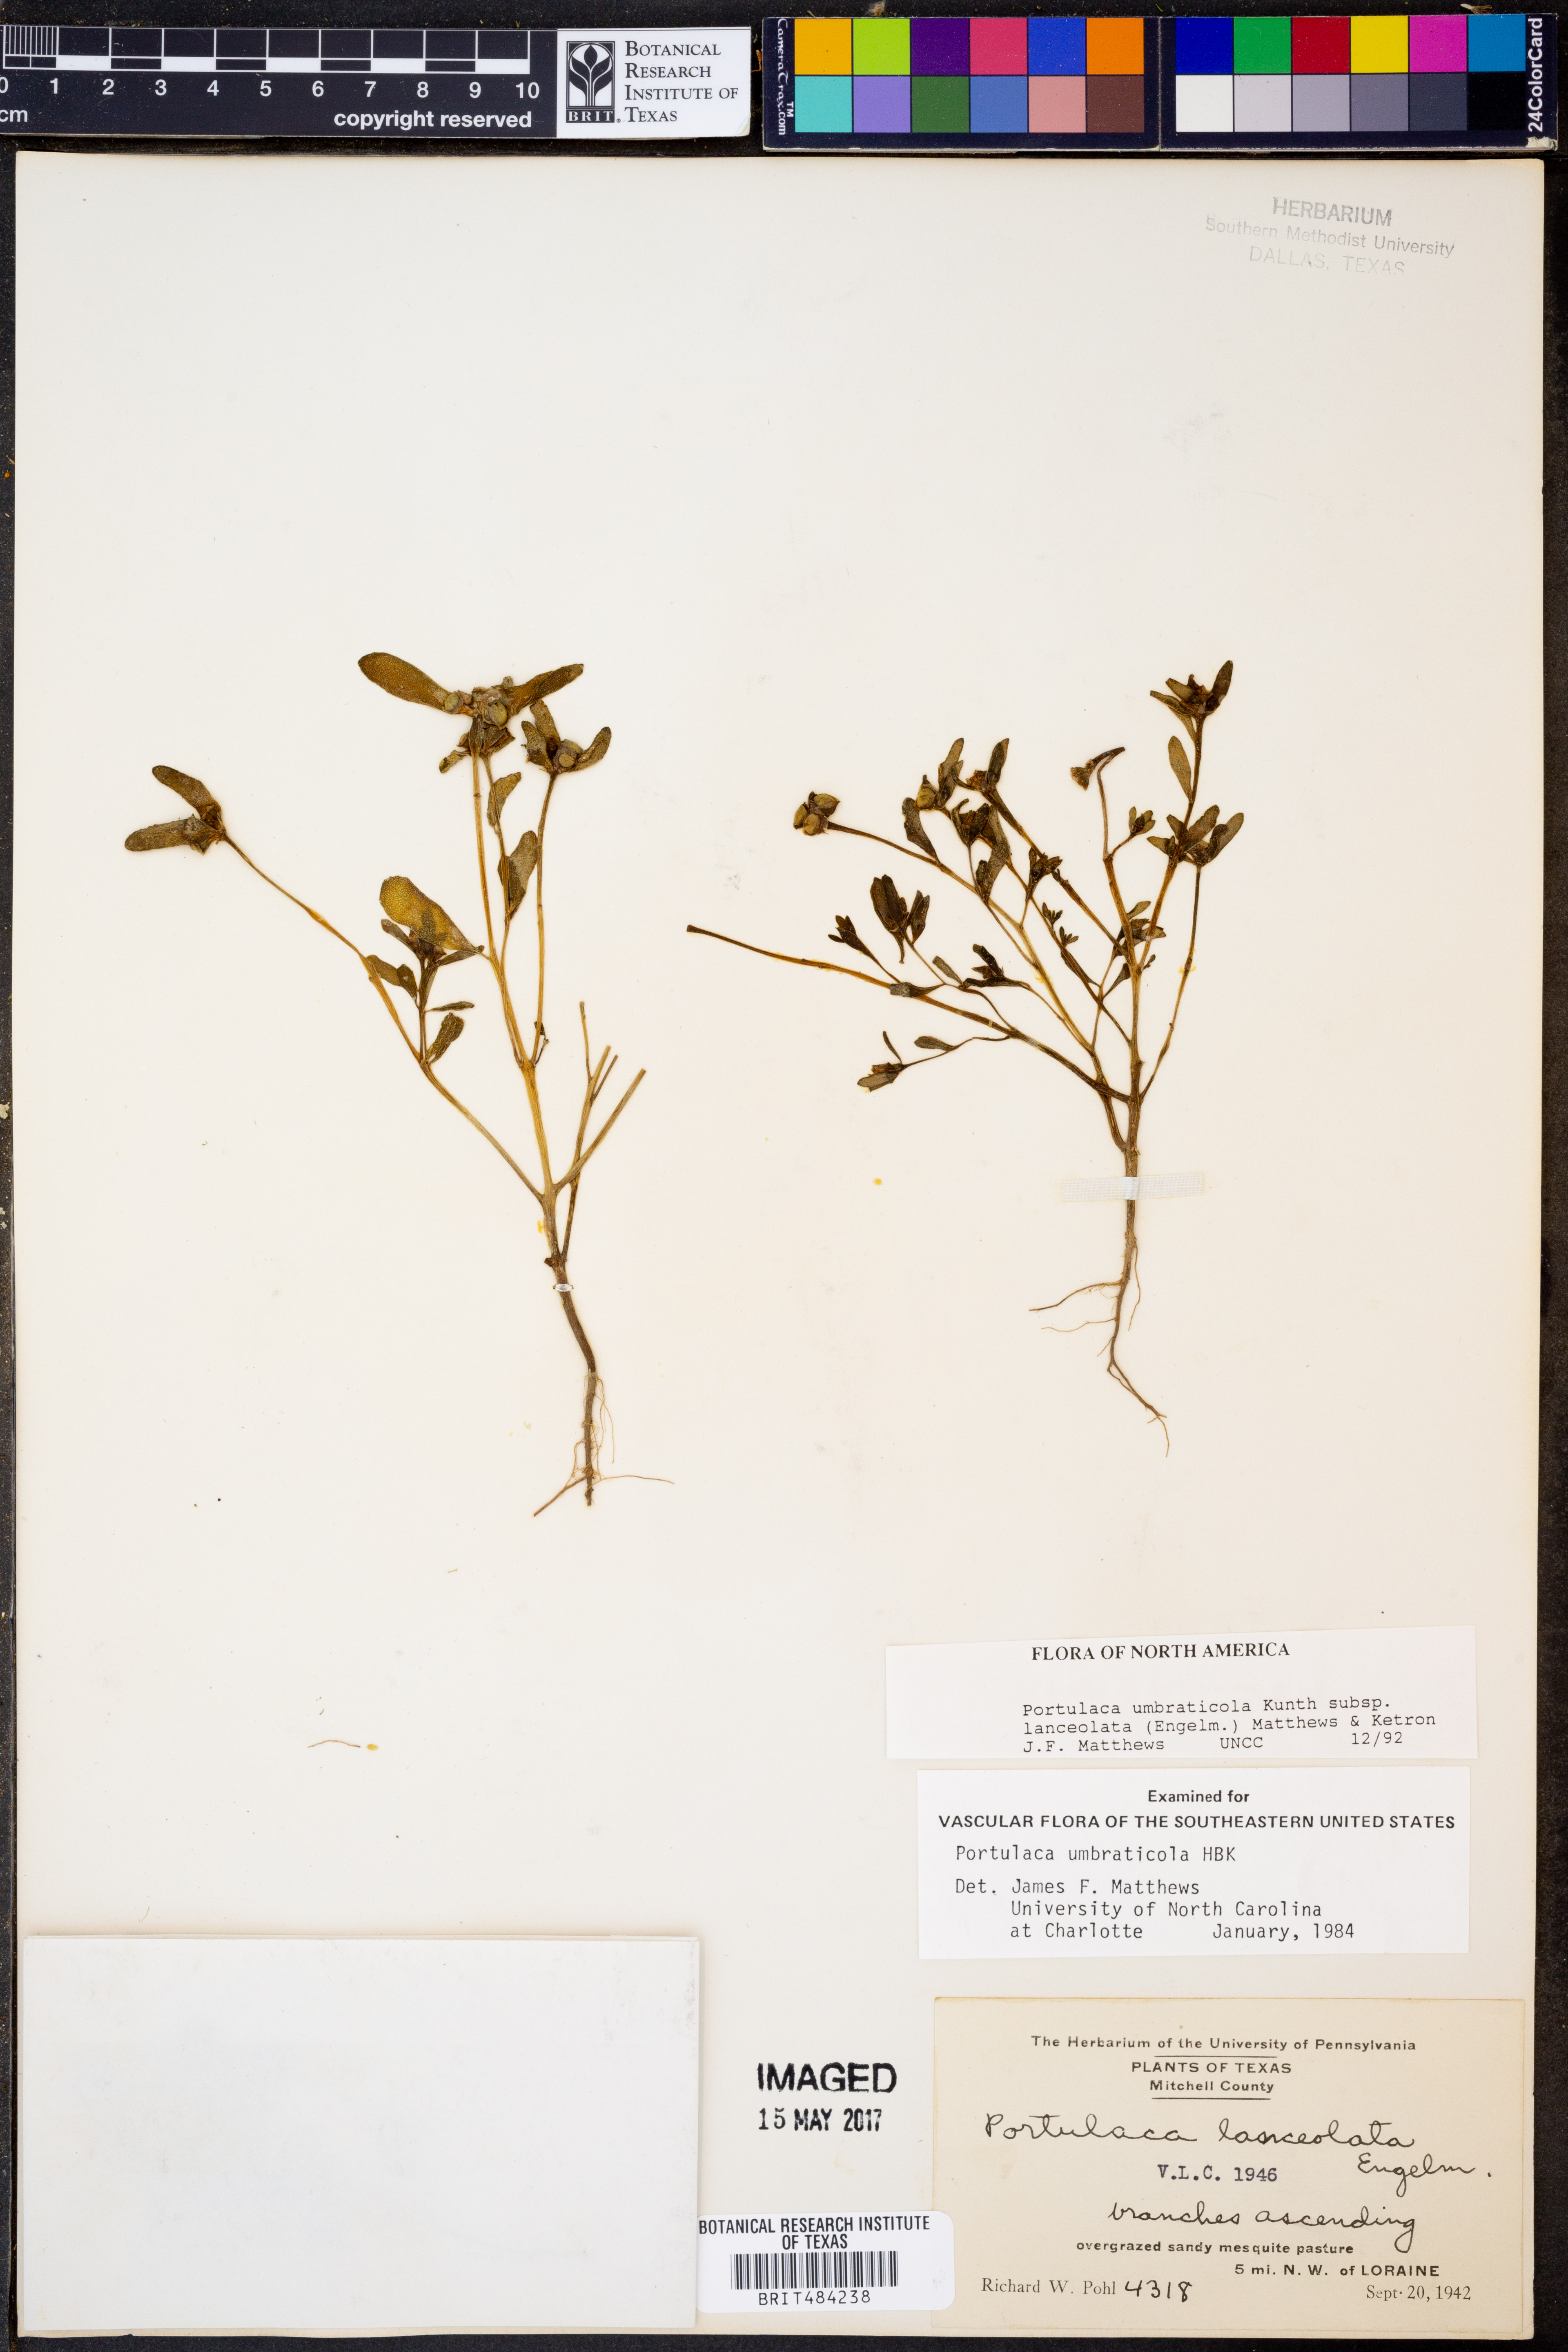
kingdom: Plantae
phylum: Tracheophyta
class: Magnoliopsida
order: Caryophyllales
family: Portulacaceae
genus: Portulaca
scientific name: Portulaca umbraticola
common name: Wingpod purslane
